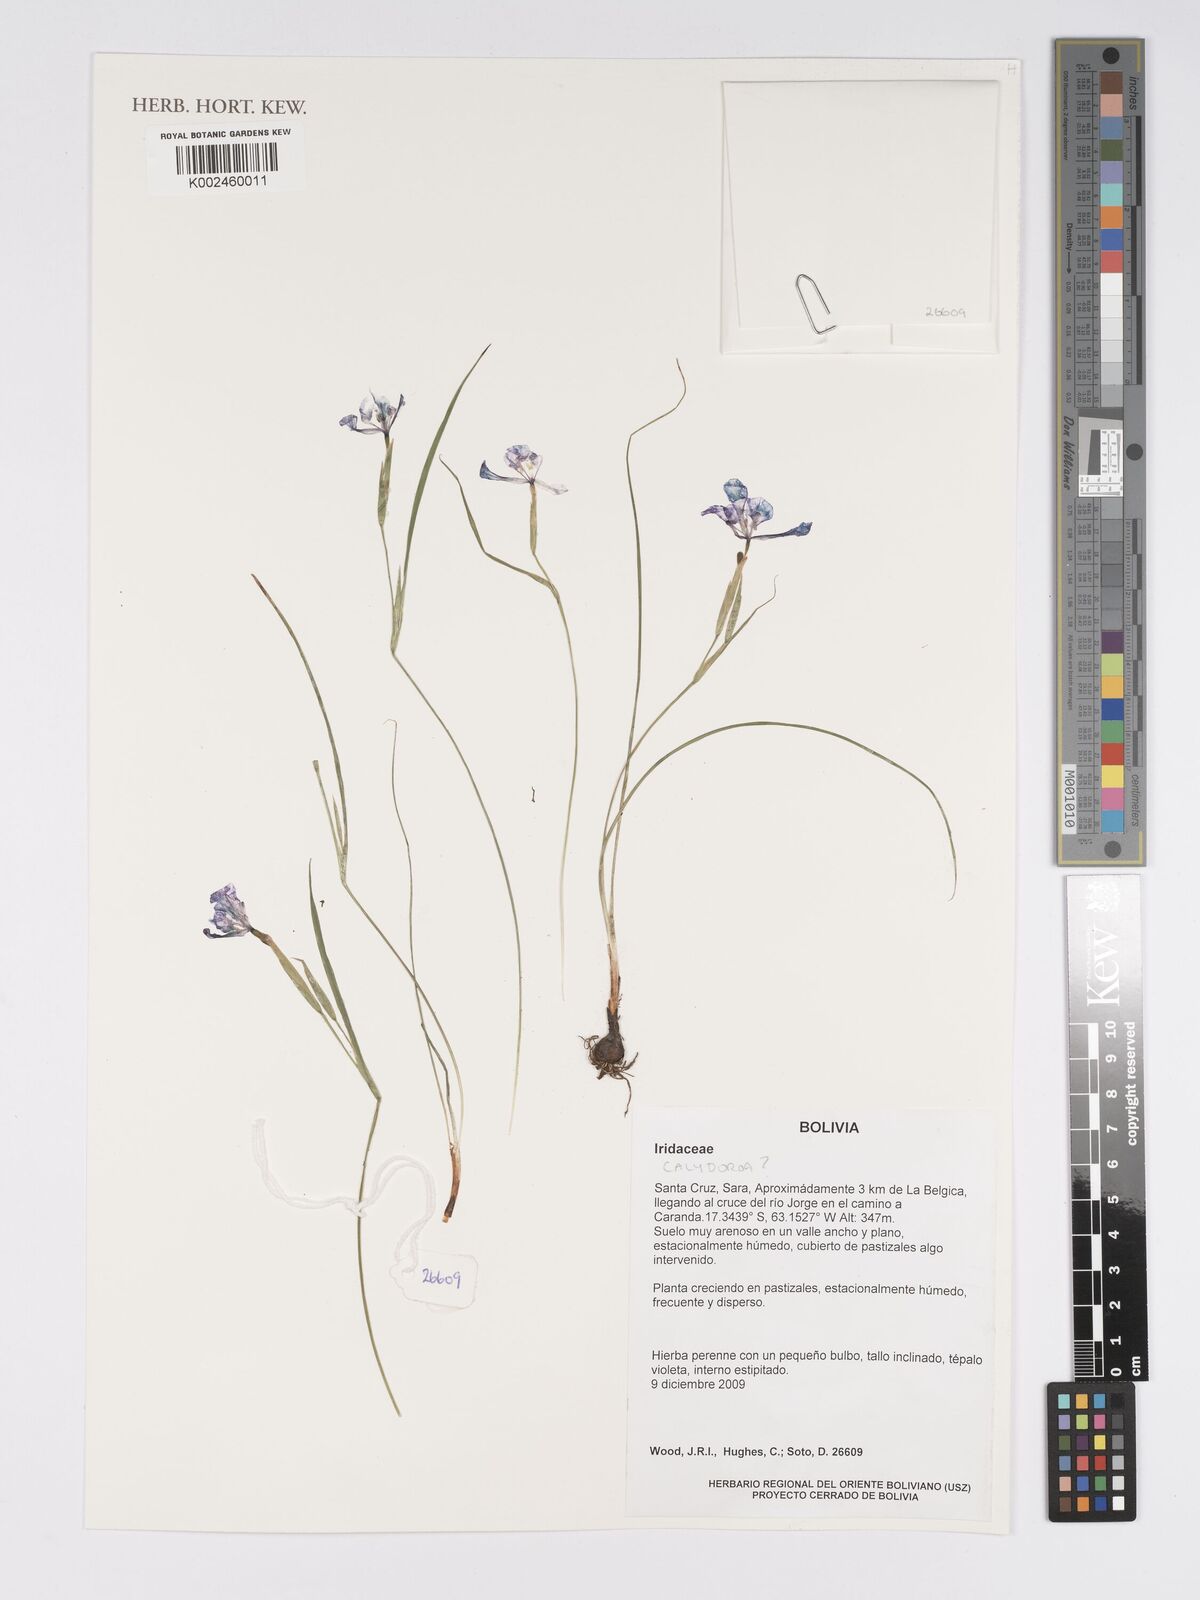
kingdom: Plantae
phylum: Tracheophyta
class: Liliopsida
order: Asparagales
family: Iridaceae
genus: Calydorea
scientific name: Calydorea approximata
